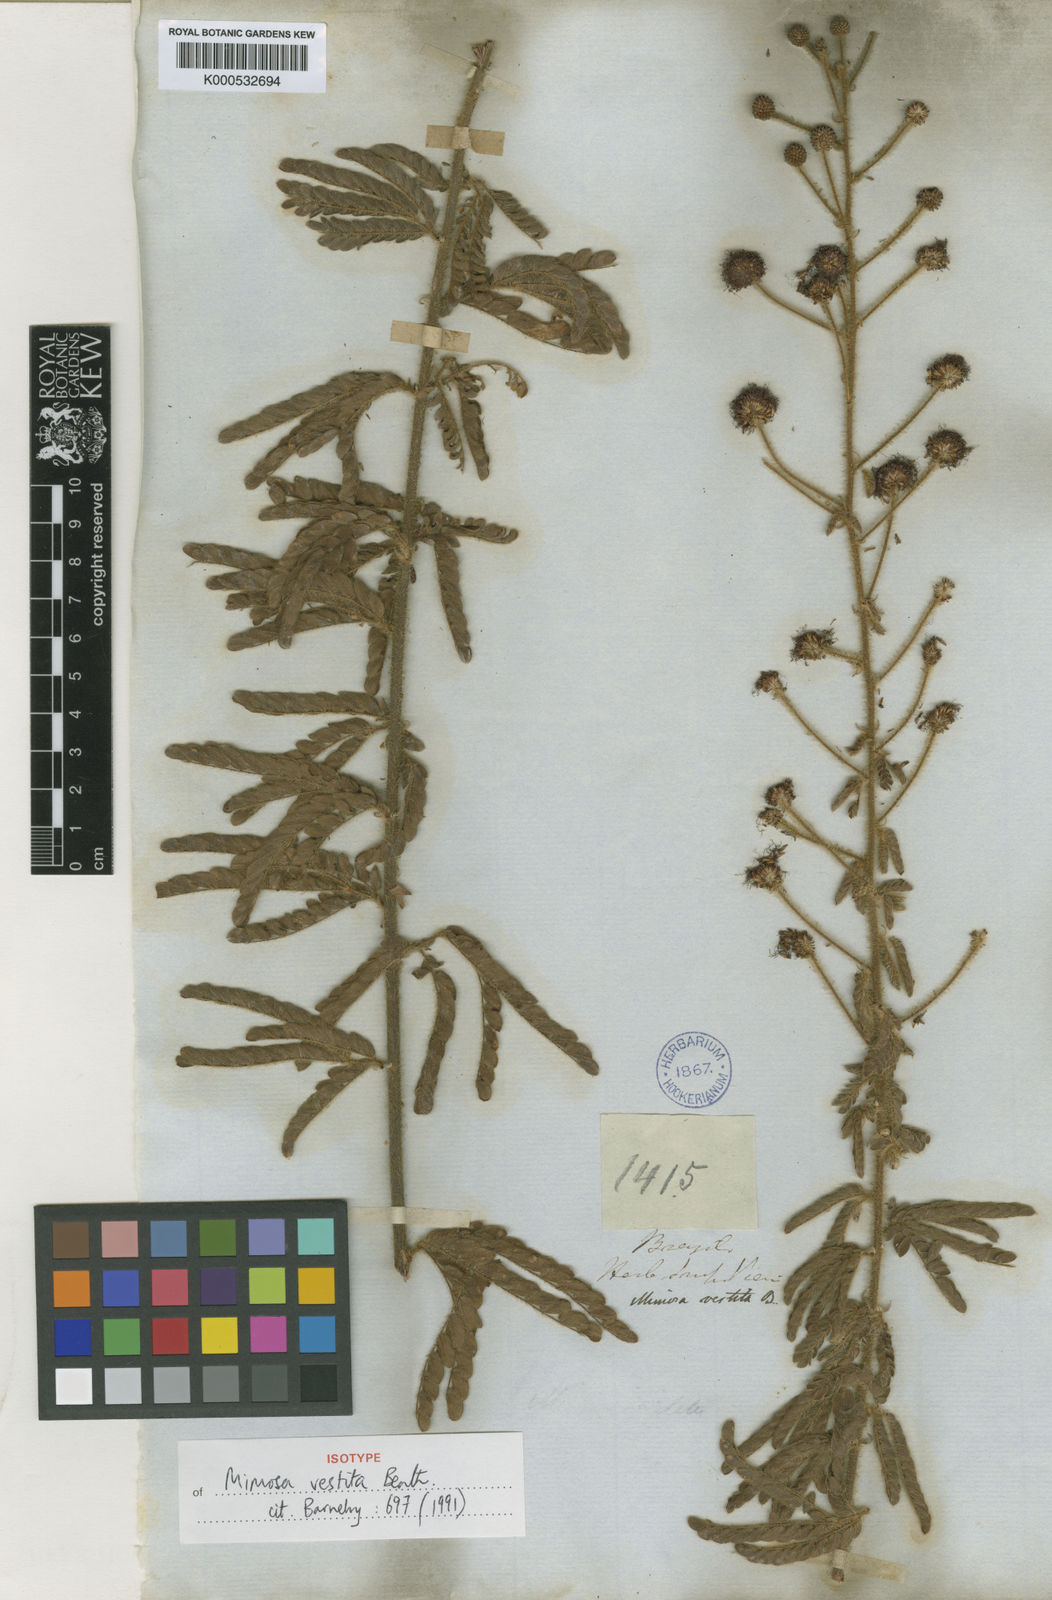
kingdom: Plantae
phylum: Tracheophyta
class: Magnoliopsida
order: Fabales
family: Fabaceae
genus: Mimosa
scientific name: Mimosa vestita
